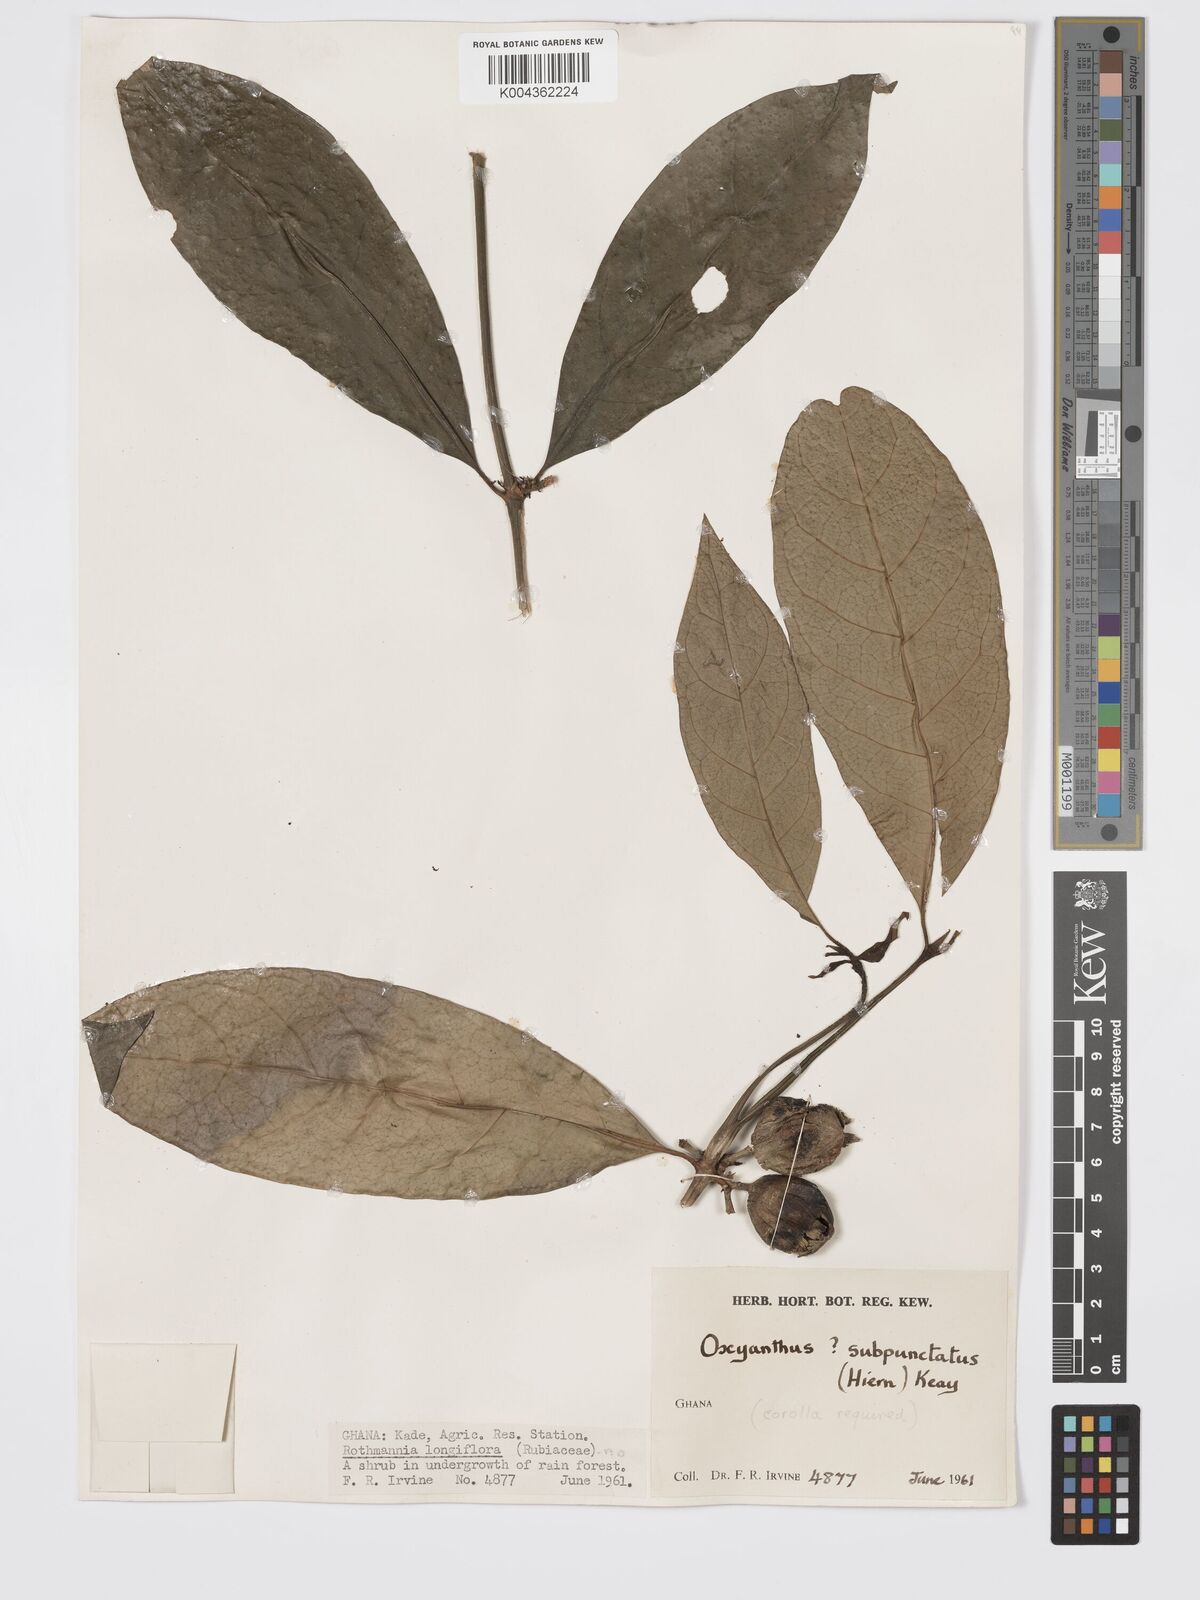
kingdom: Plantae
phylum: Tracheophyta
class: Magnoliopsida
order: Gentianales
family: Rubiaceae
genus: Oxyanthus
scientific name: Oxyanthus subpunctatus
